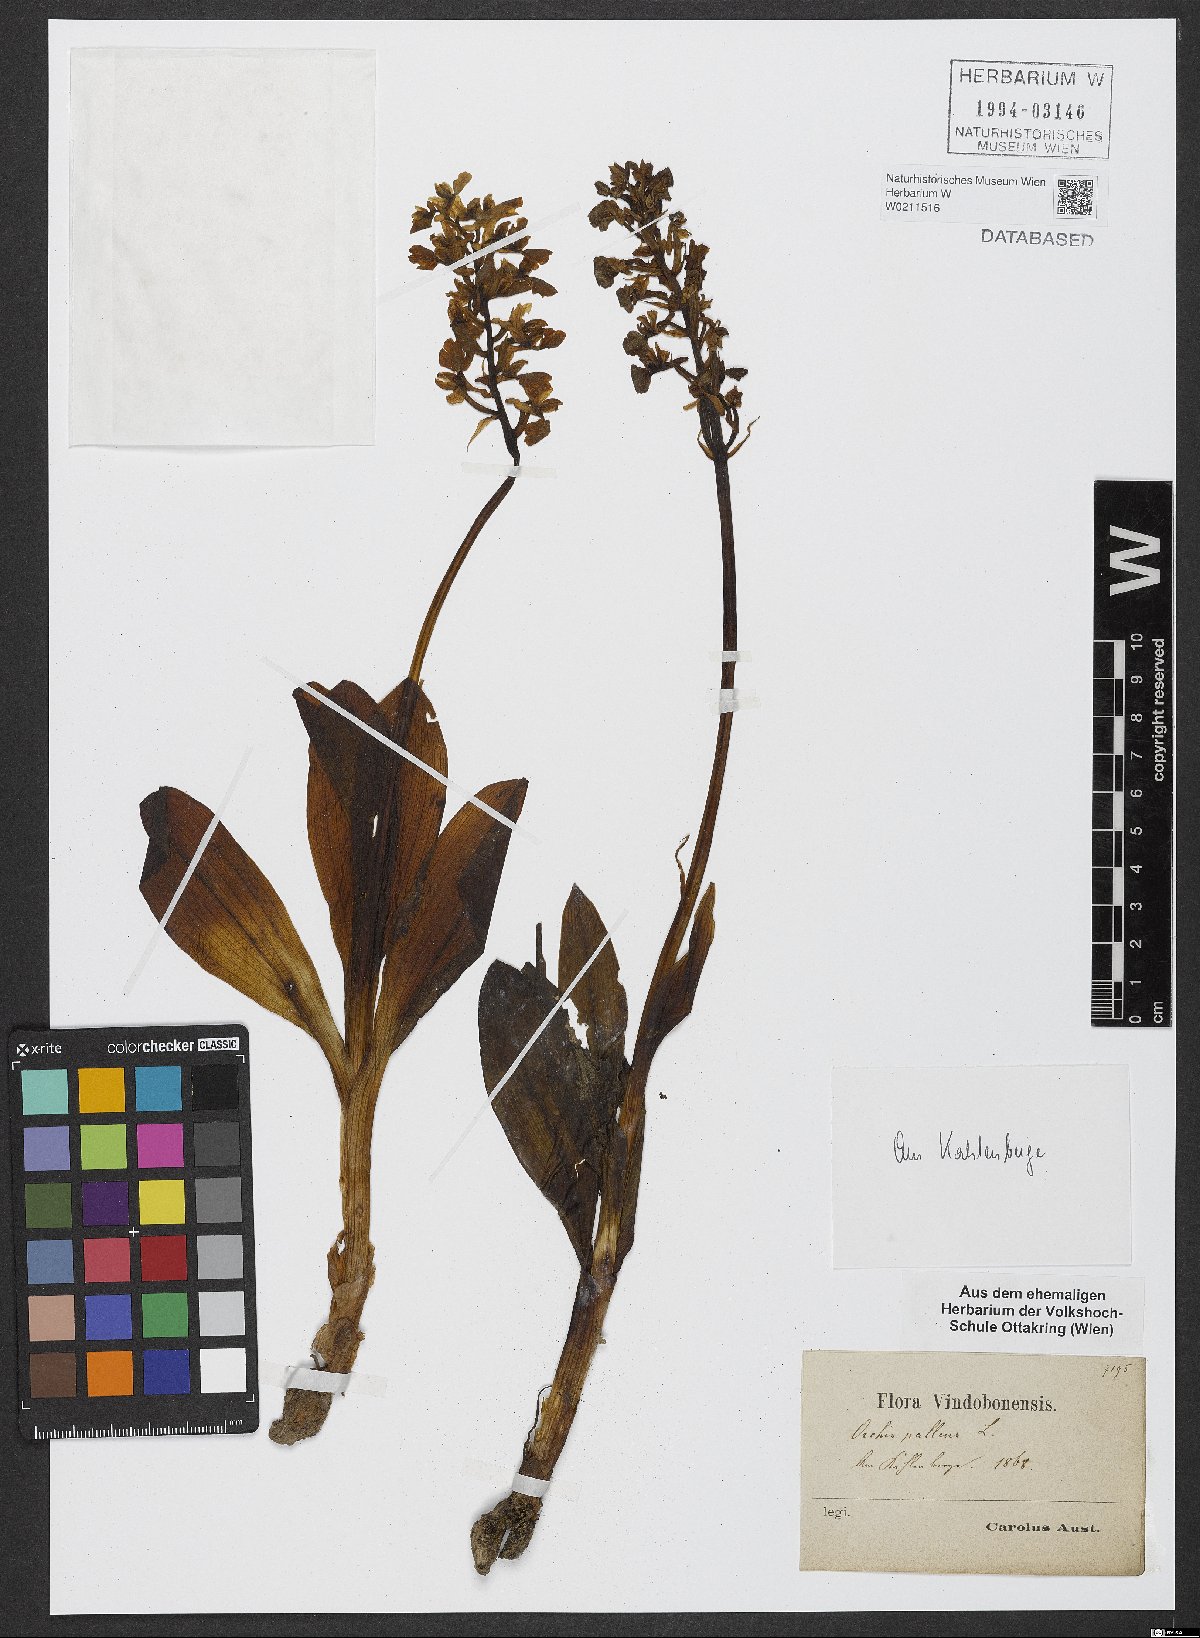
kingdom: Plantae
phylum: Tracheophyta
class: Liliopsida
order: Asparagales
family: Orchidaceae
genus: Orchis
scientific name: Orchis pallens
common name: Pale-flowered orchid
